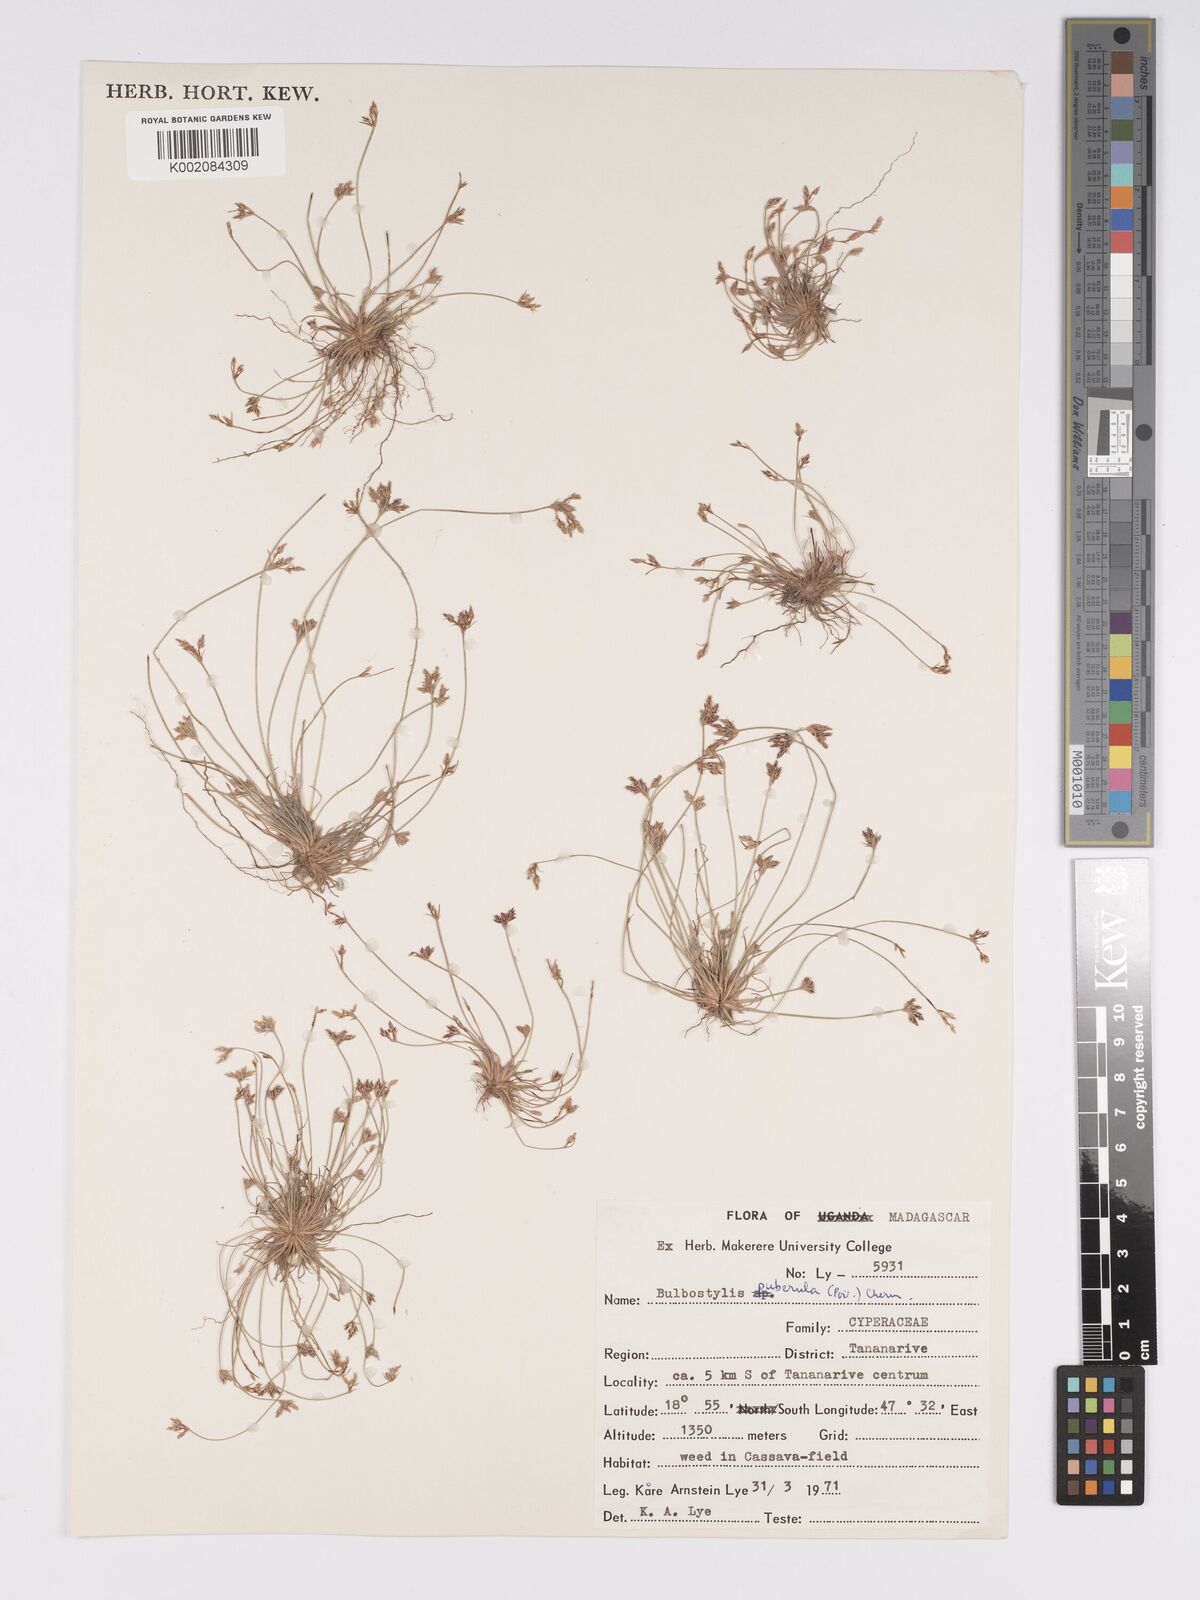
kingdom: Plantae
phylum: Tracheophyta
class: Liliopsida
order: Poales
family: Cyperaceae
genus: Bulbostylis
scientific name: Bulbostylis thouarsii
